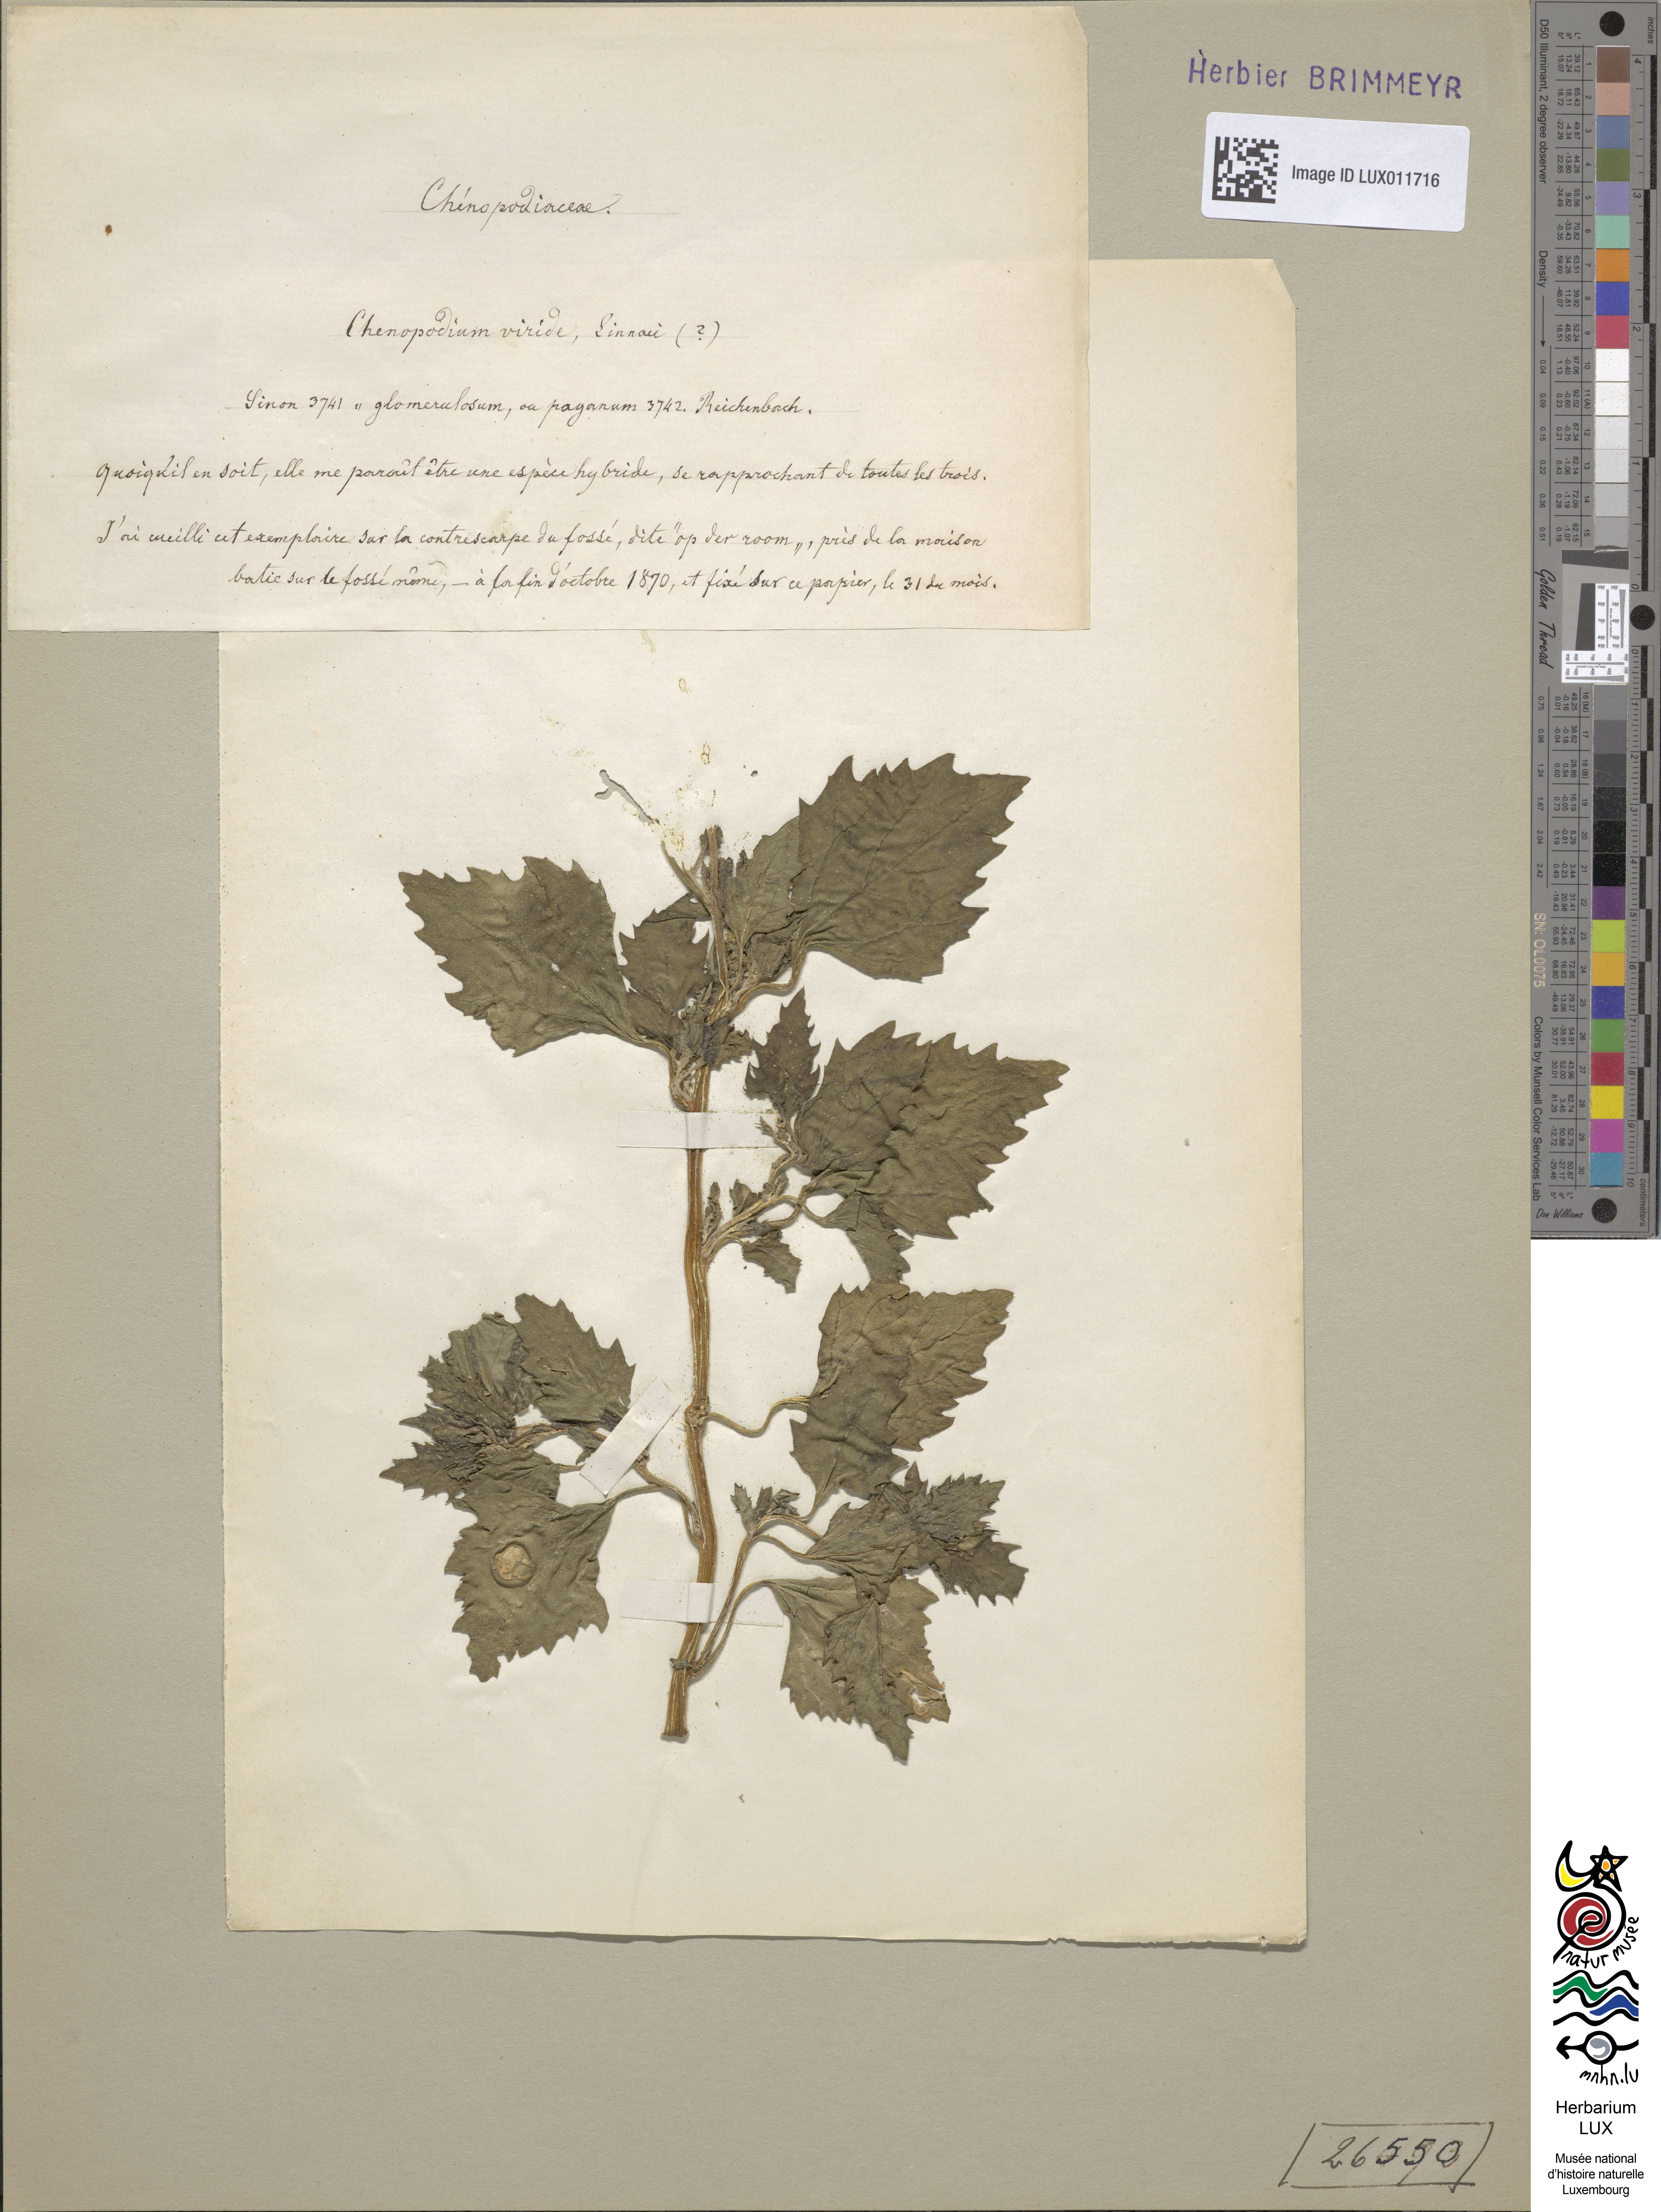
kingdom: Plantae
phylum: Tracheophyta
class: Magnoliopsida
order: Caryophyllales
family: Amaranthaceae
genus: Chenopodium
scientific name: Chenopodium viride
